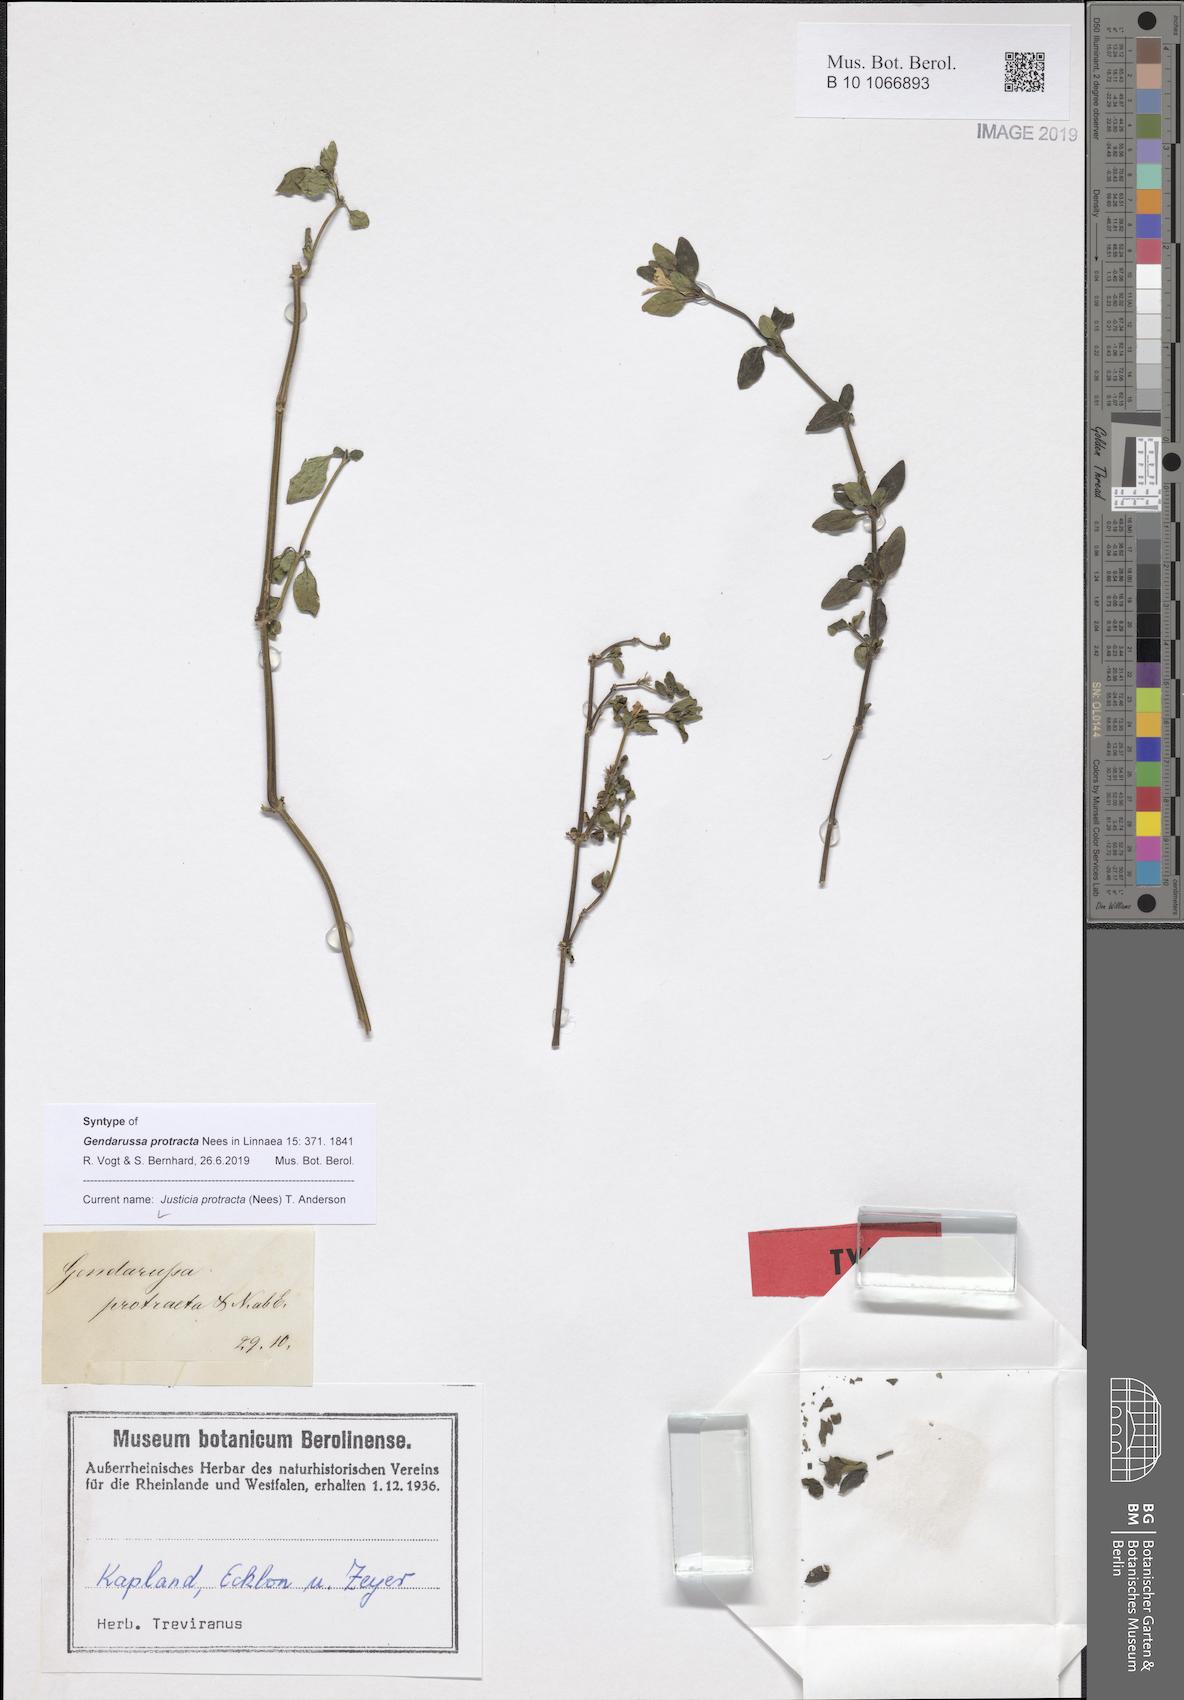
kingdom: Plantae
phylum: Tracheophyta
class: Magnoliopsida
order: Lamiales
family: Acanthaceae
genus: Justicia
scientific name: Justicia protracta
